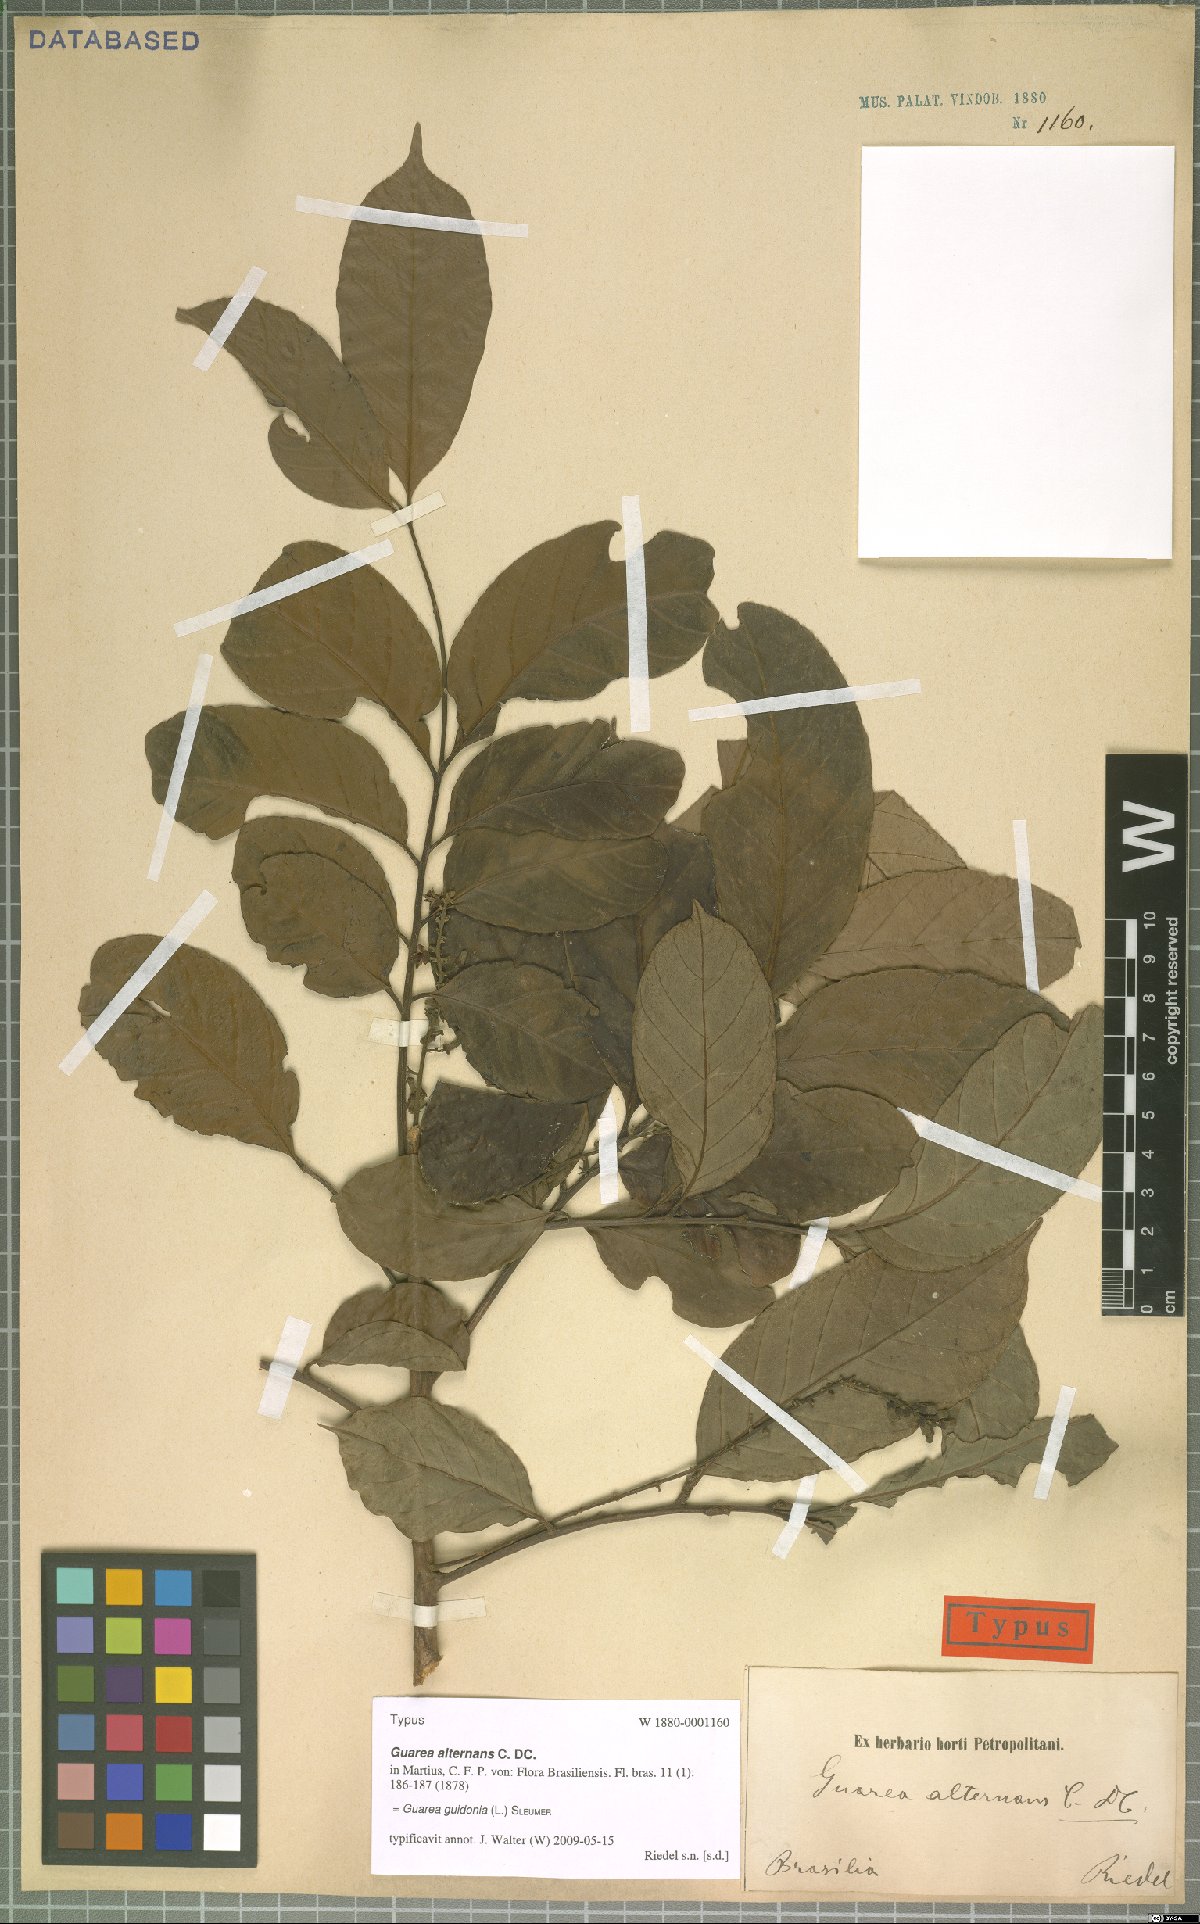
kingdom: Plantae
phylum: Tracheophyta
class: Magnoliopsida
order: Sapindales
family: Meliaceae
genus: Guarea
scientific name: Guarea guidonia
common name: American muskwood
